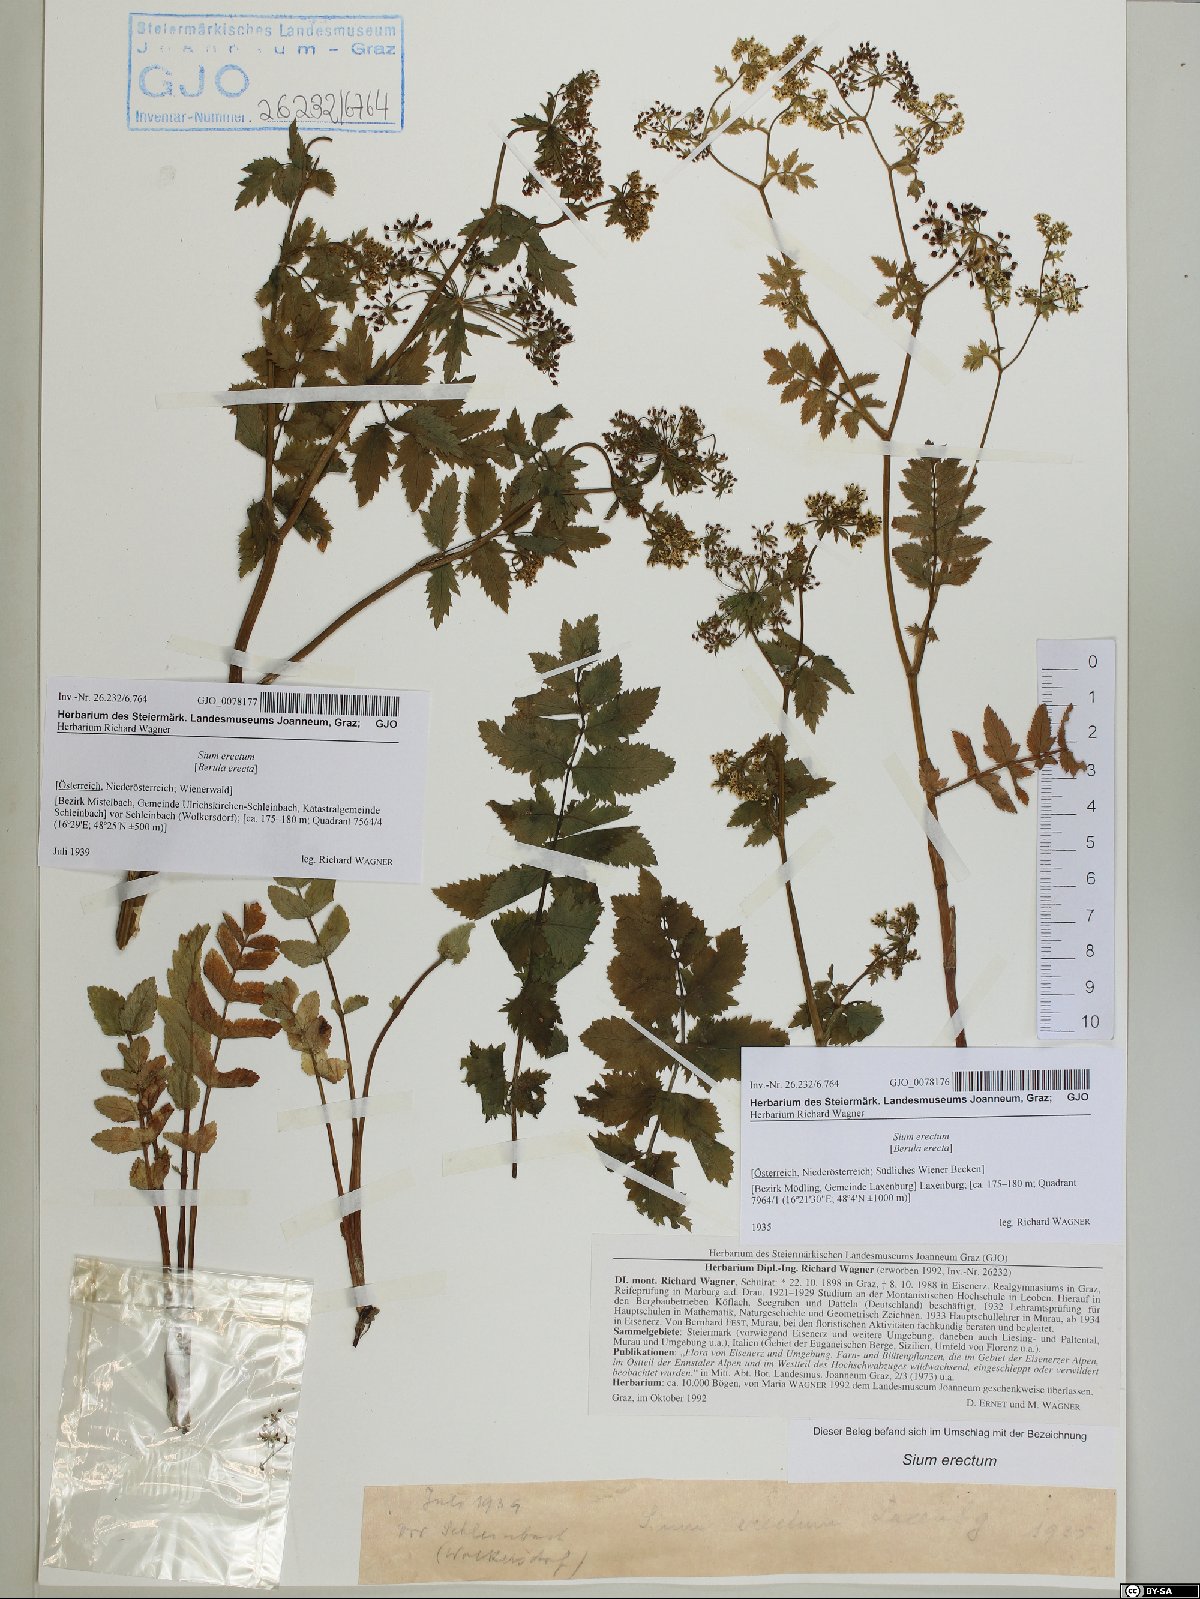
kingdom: Plantae
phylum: Tracheophyta
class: Magnoliopsida
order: Apiales
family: Apiaceae
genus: Berula
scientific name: Berula erecta
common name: Lesser water-parsnip
